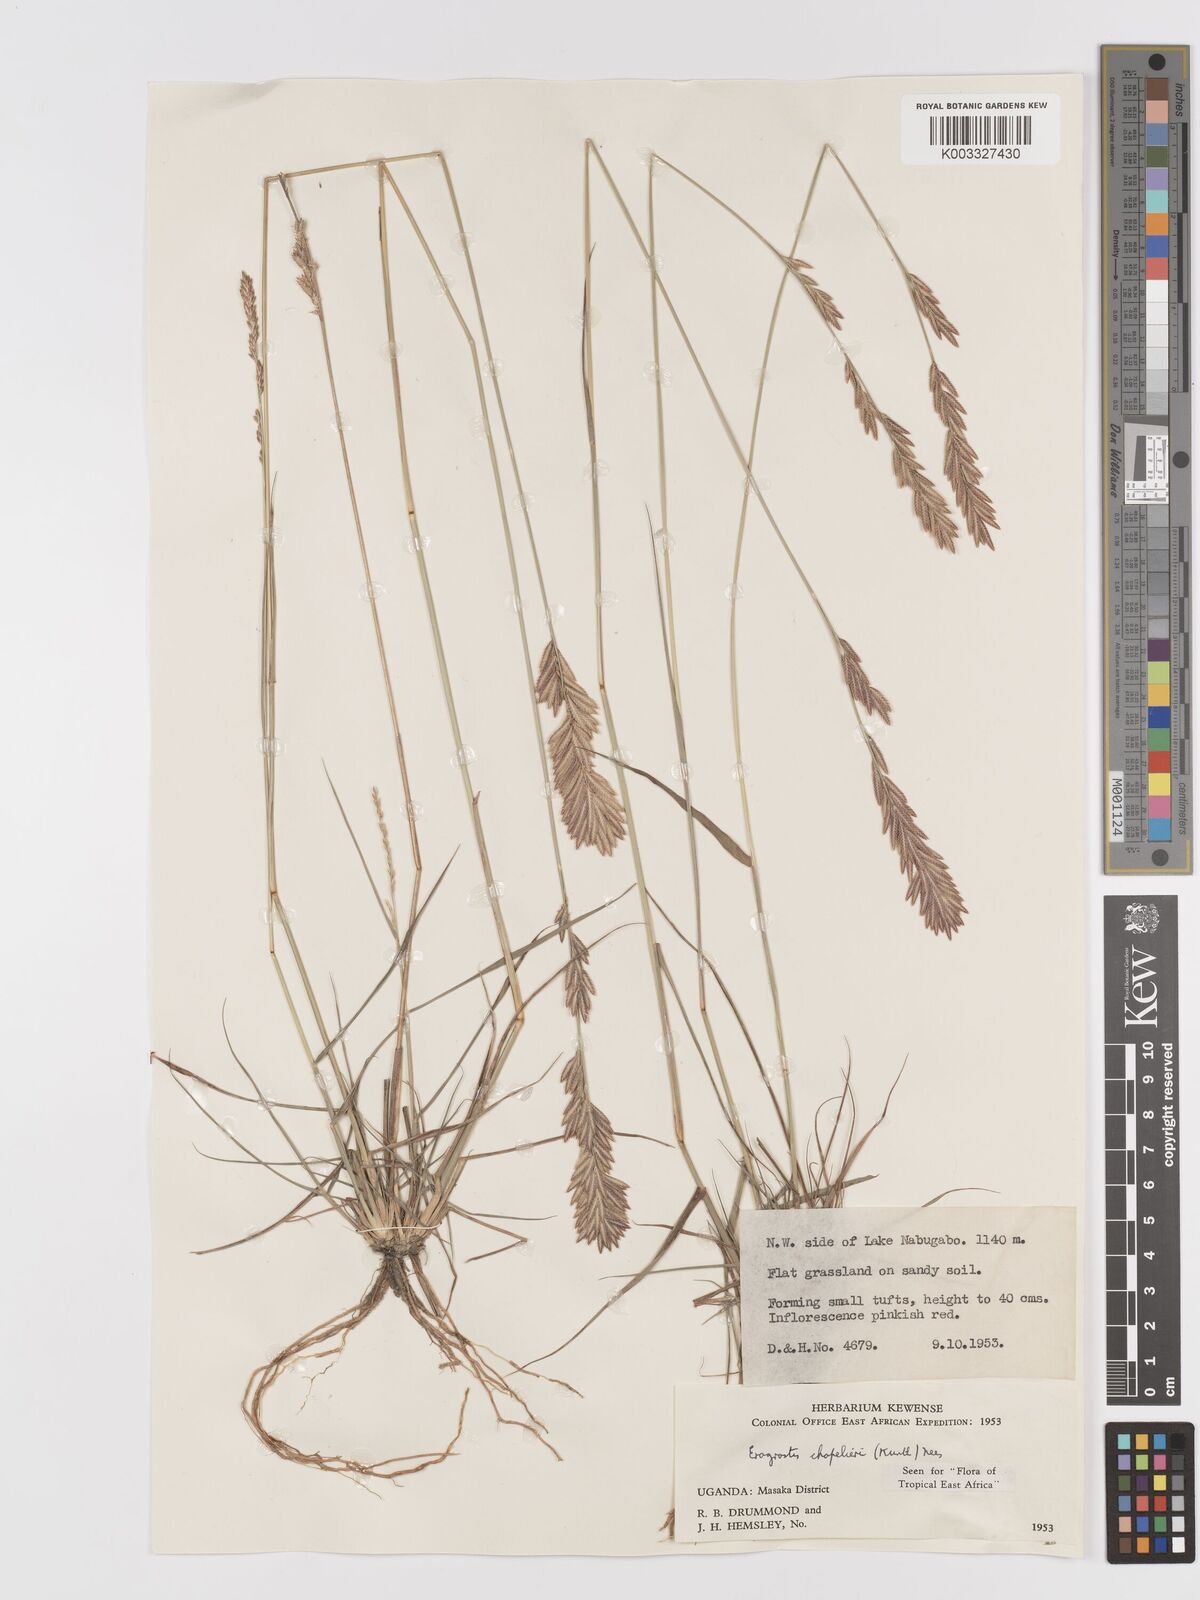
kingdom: Plantae
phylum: Tracheophyta
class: Liliopsida
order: Poales
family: Poaceae
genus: Eragrostis
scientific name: Eragrostis chapelieri
